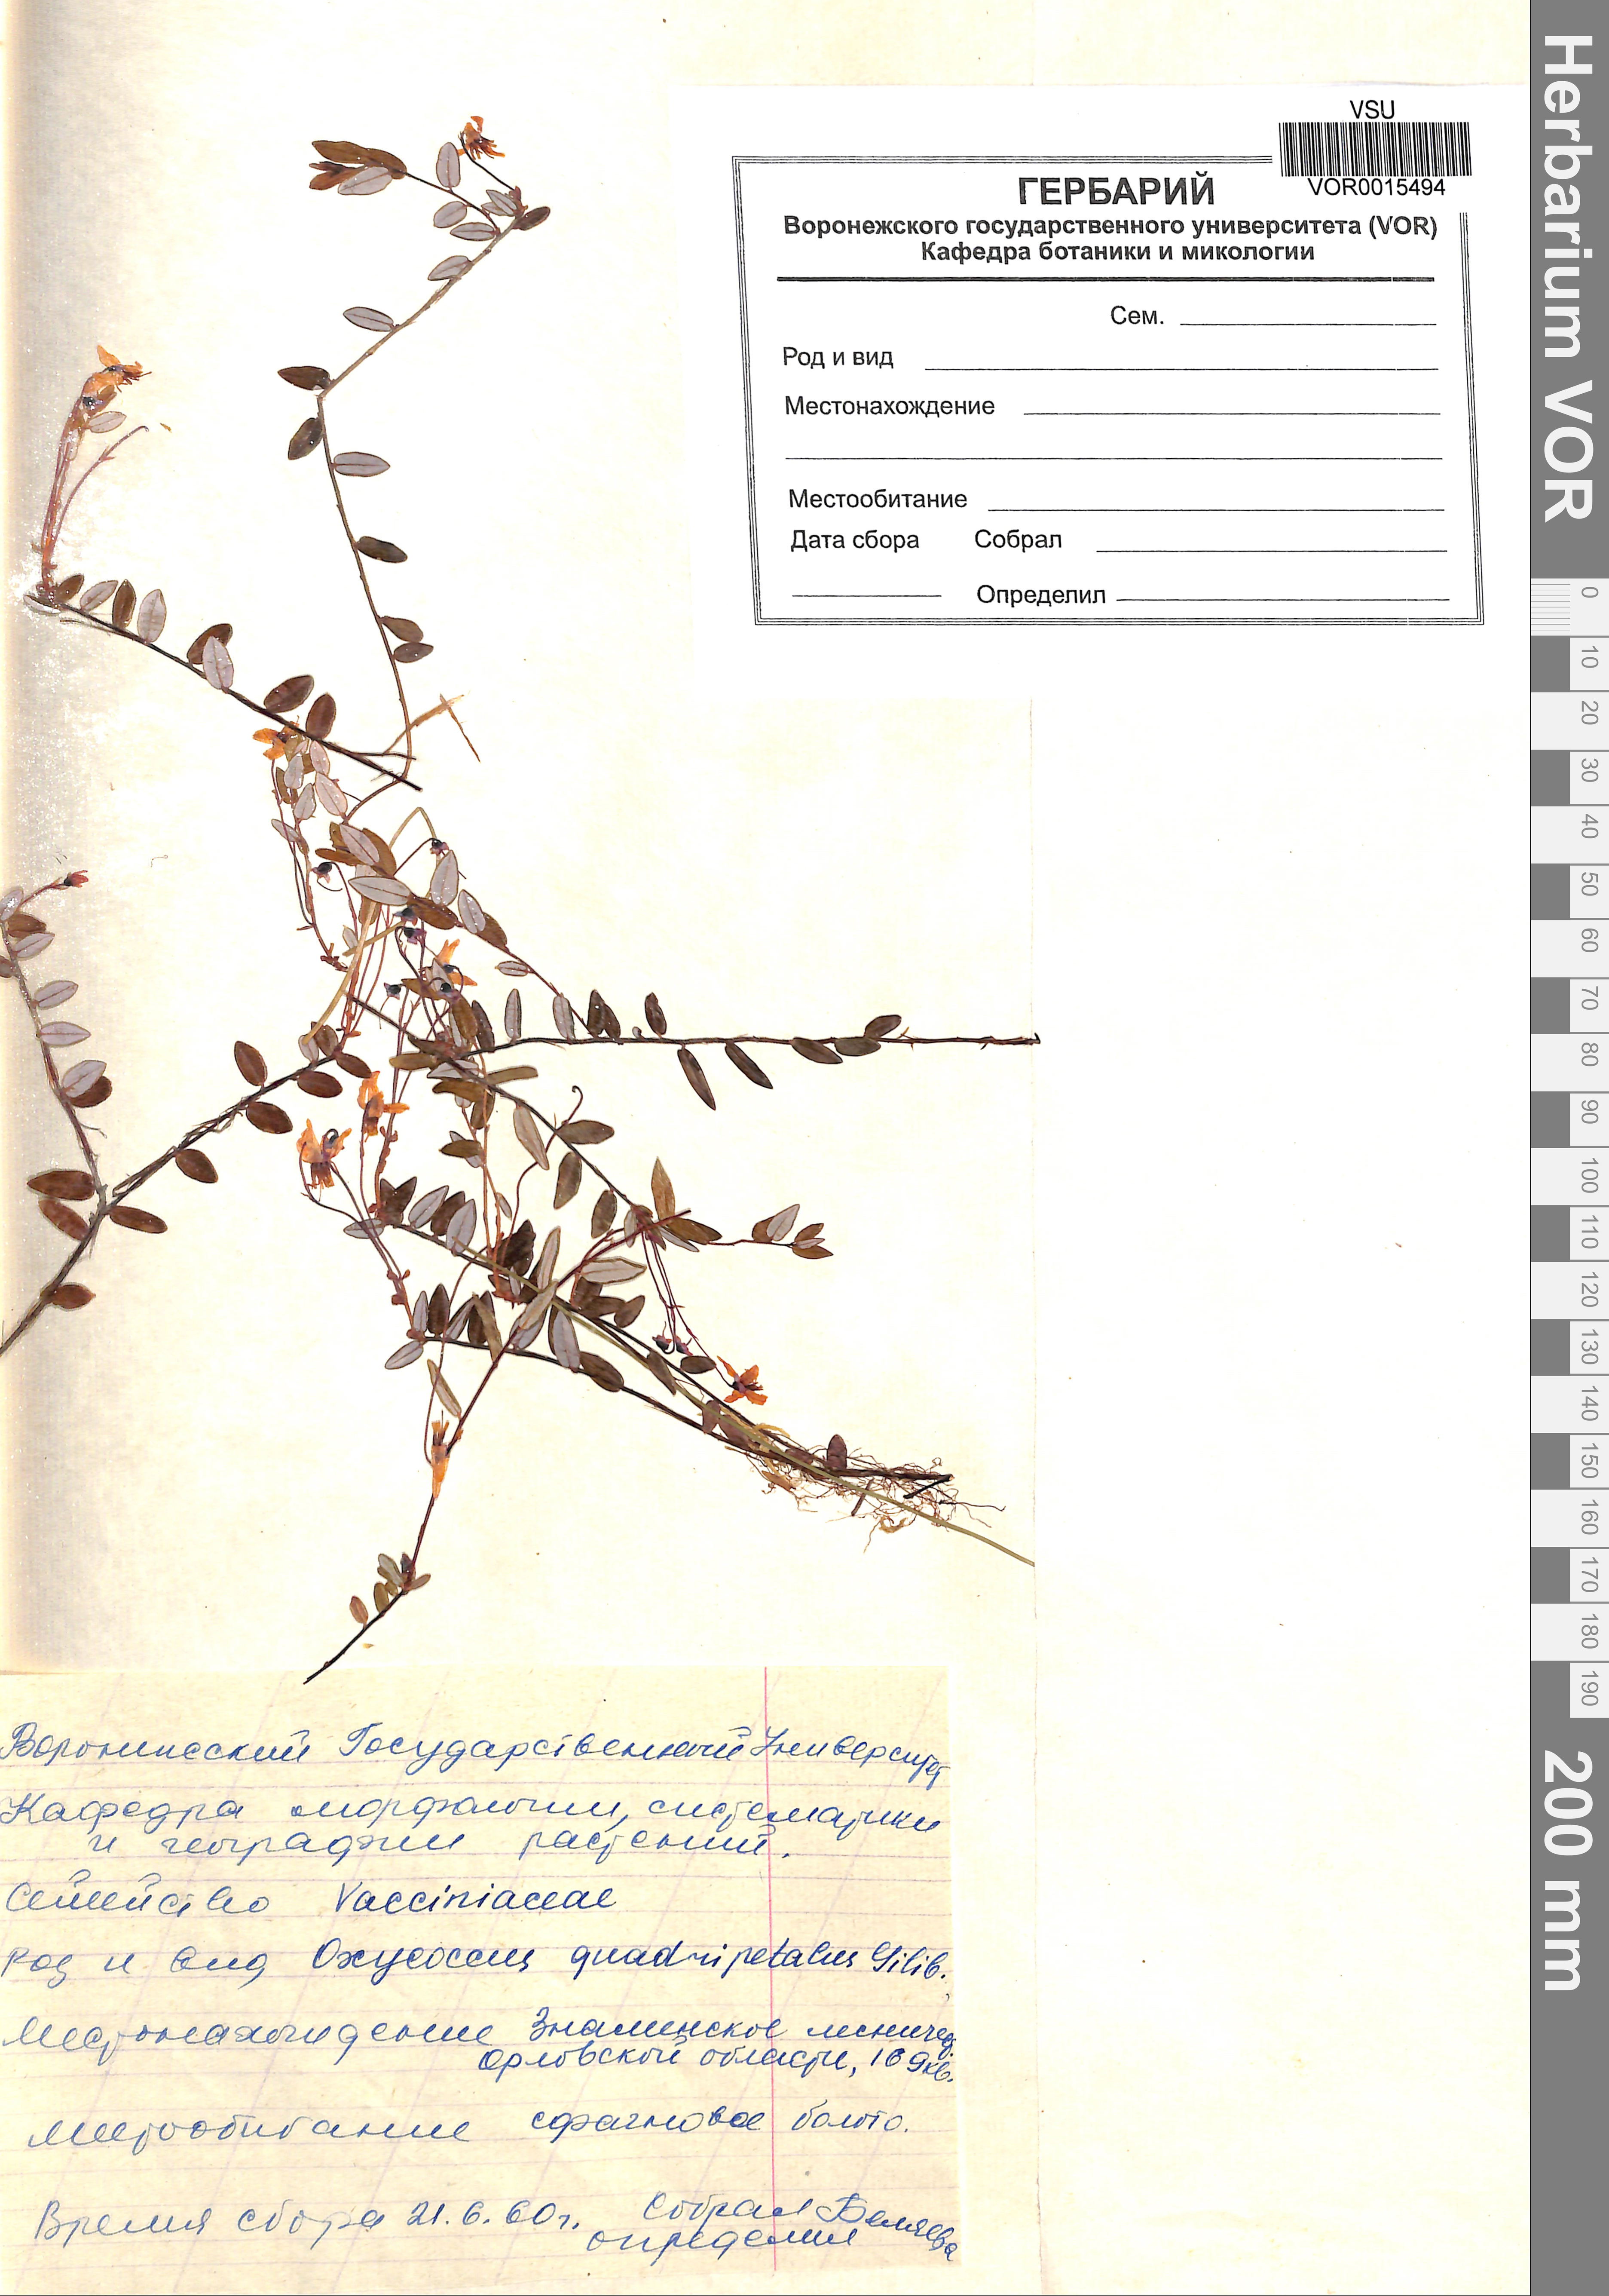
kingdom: Plantae
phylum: Tracheophyta
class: Magnoliopsida
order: Ericales
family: Ericaceae
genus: Vaccinium
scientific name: Vaccinium oxycoccos
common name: Cranberry
